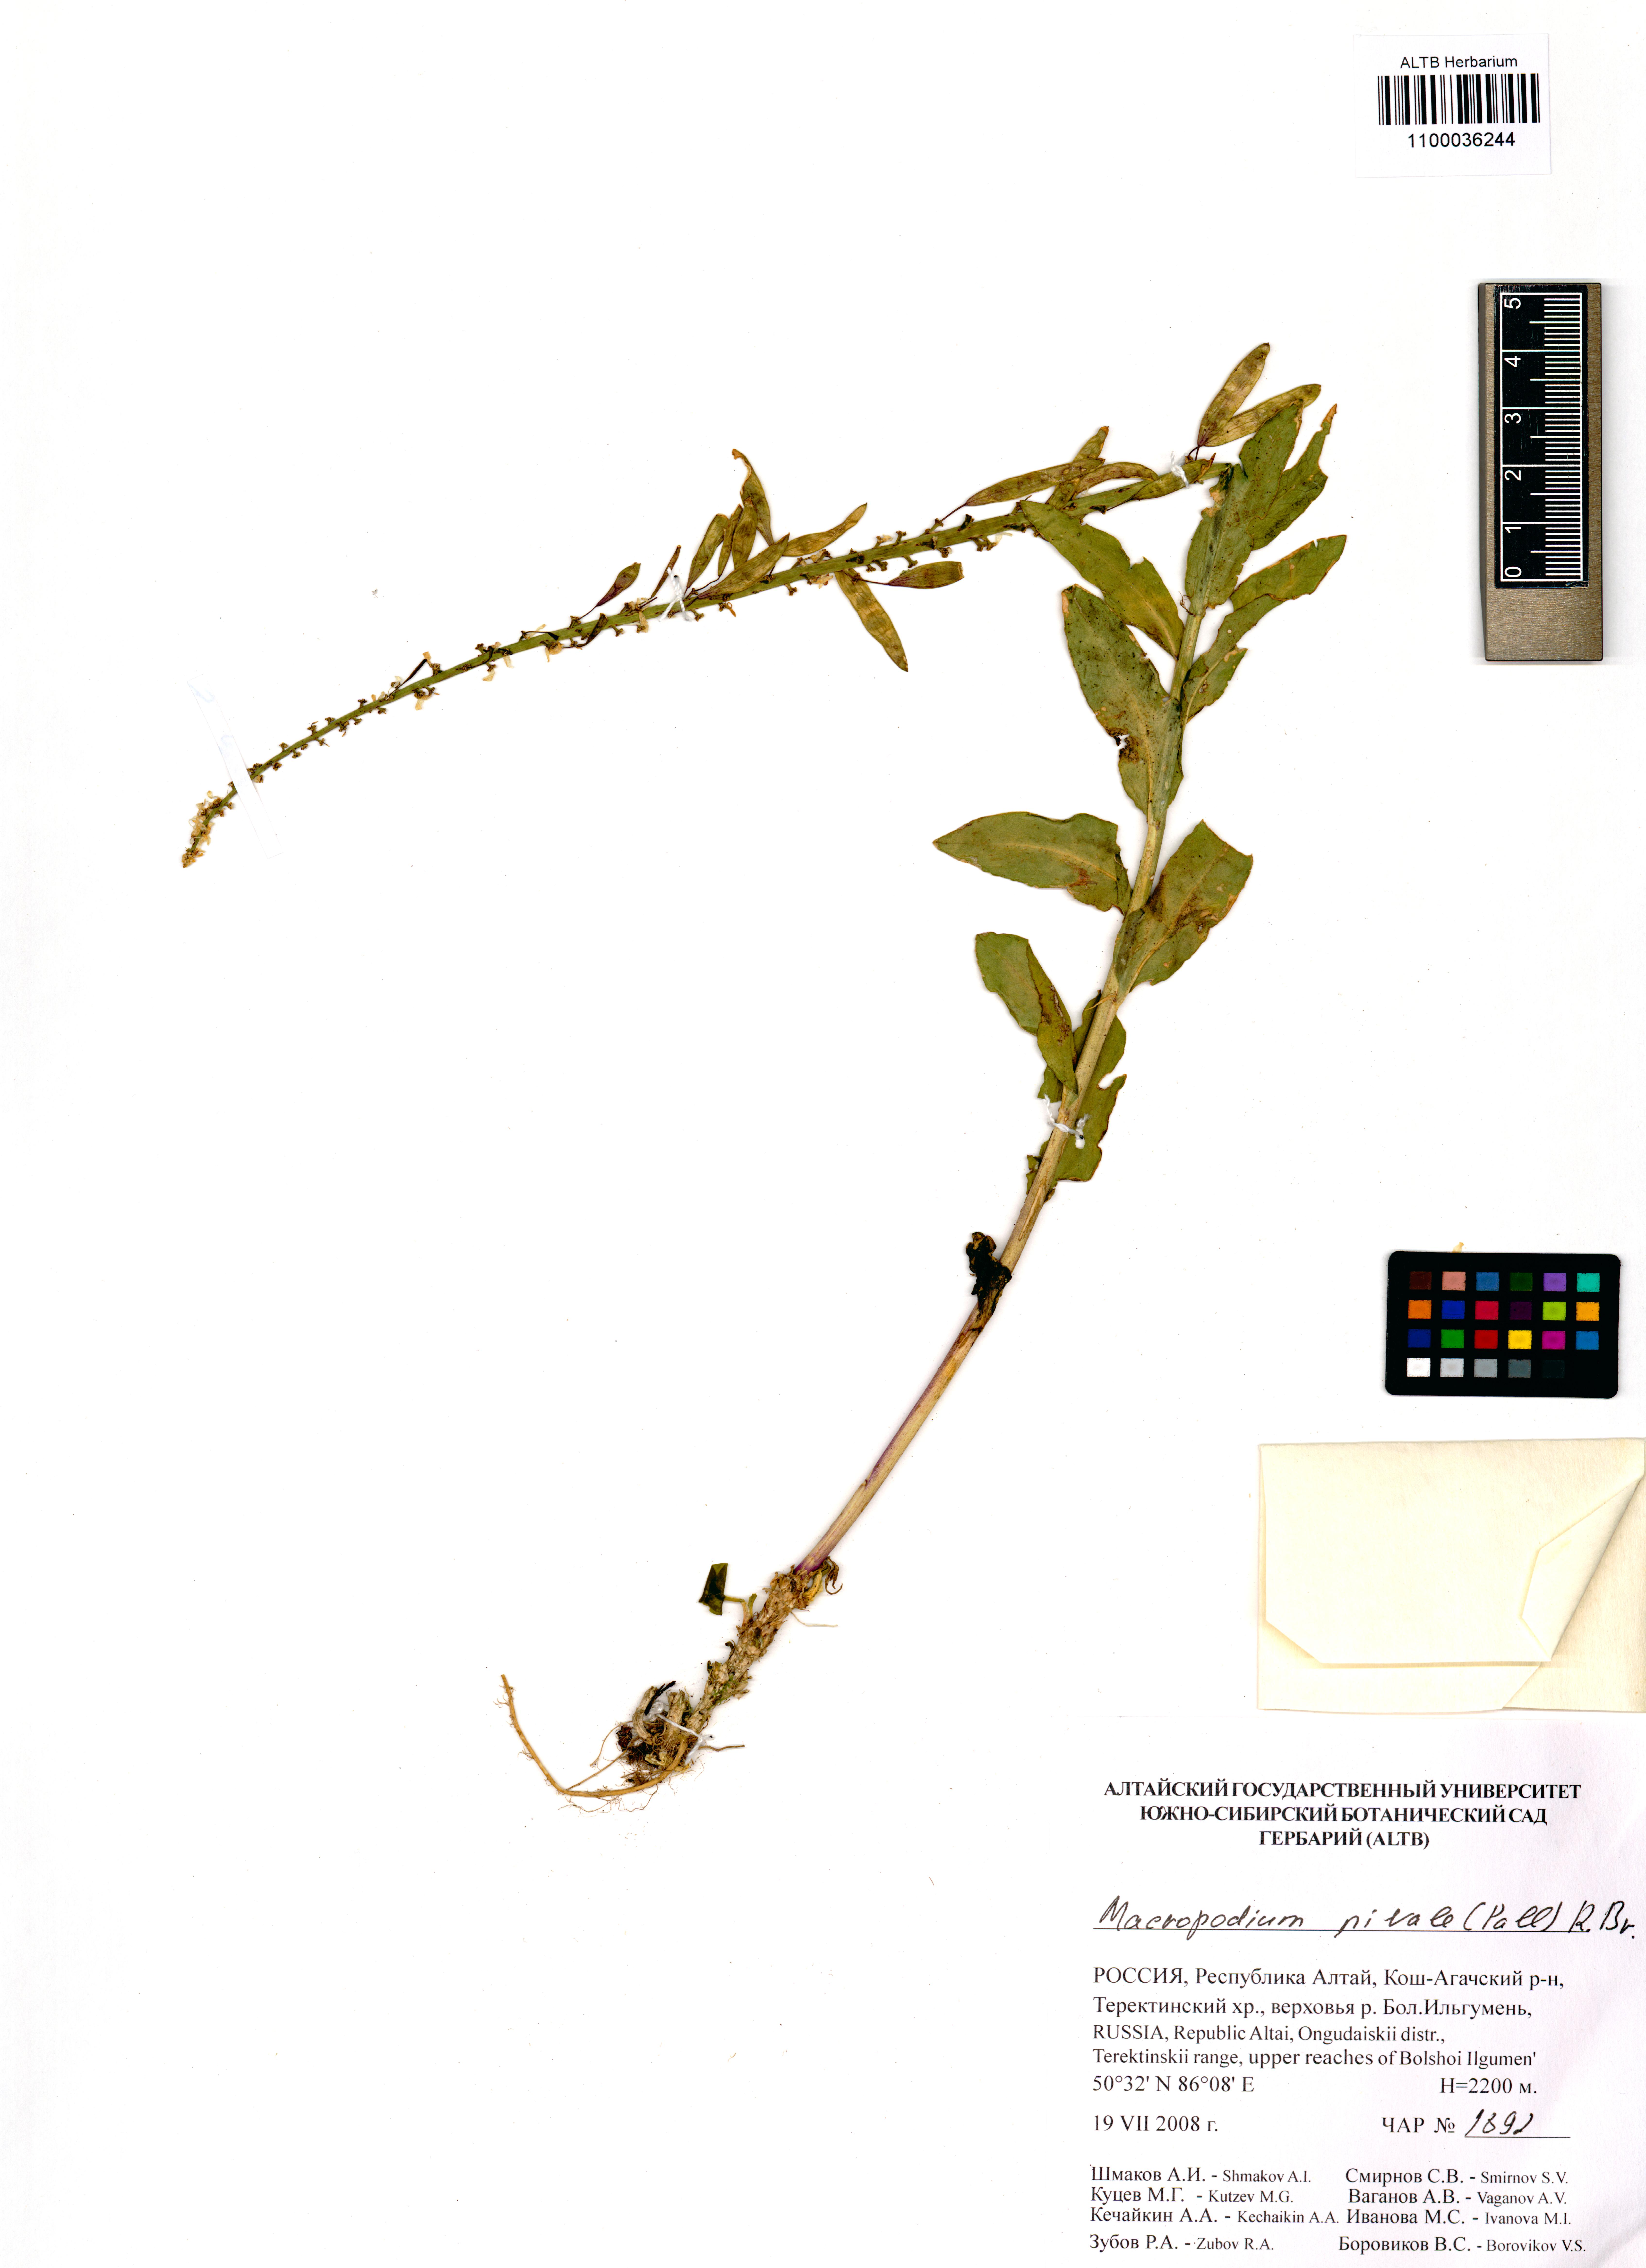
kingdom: Plantae
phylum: Tracheophyta
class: Magnoliopsida
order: Brassicales
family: Brassicaceae
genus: Macropodium
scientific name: Macropodium nivale
